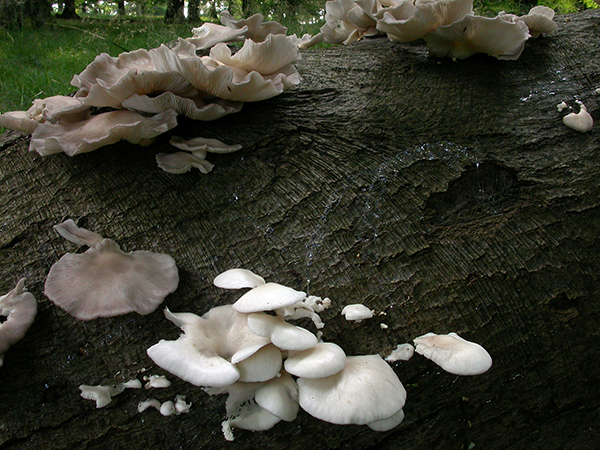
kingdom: Fungi
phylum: Basidiomycota
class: Agaricomycetes
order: Agaricales
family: Pleurotaceae
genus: Pleurotus
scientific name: Pleurotus pulmonarius
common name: sommer-østershat
